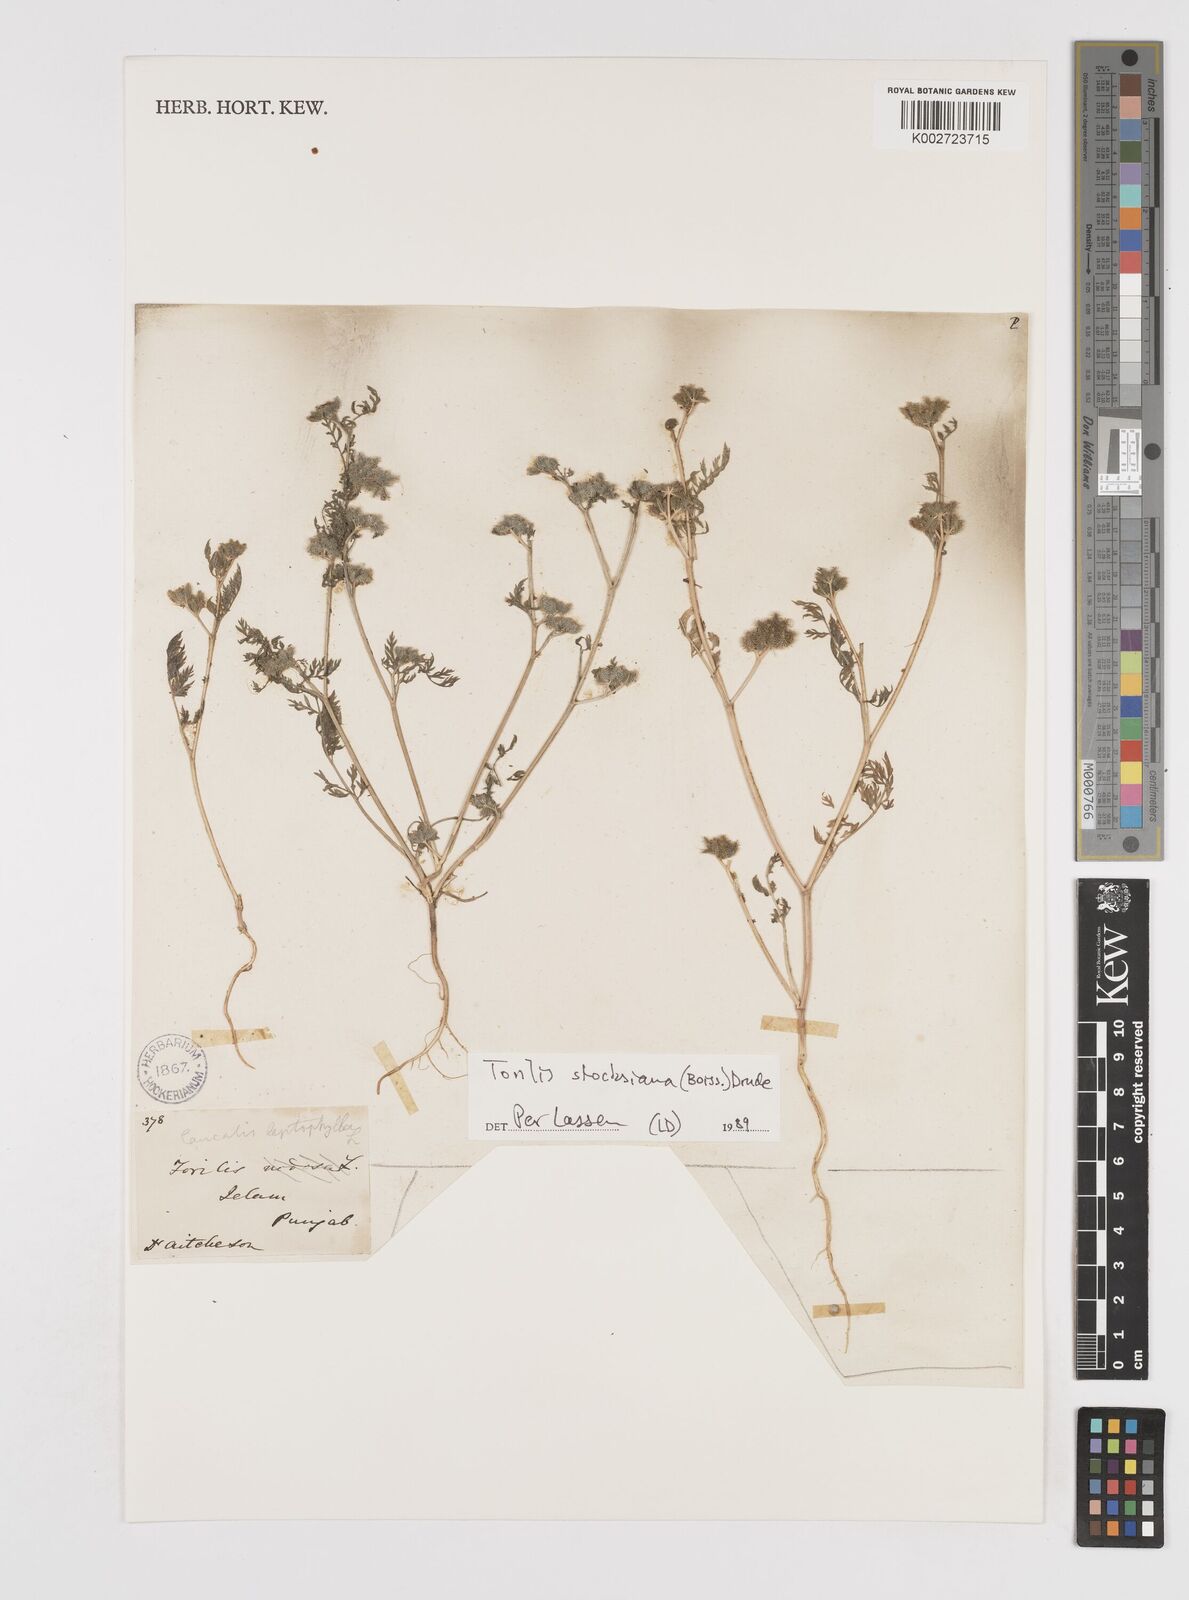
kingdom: Plantae
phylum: Tracheophyta
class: Magnoliopsida
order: Apiales
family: Apiaceae
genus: Torilis
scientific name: Torilis stocksiana
